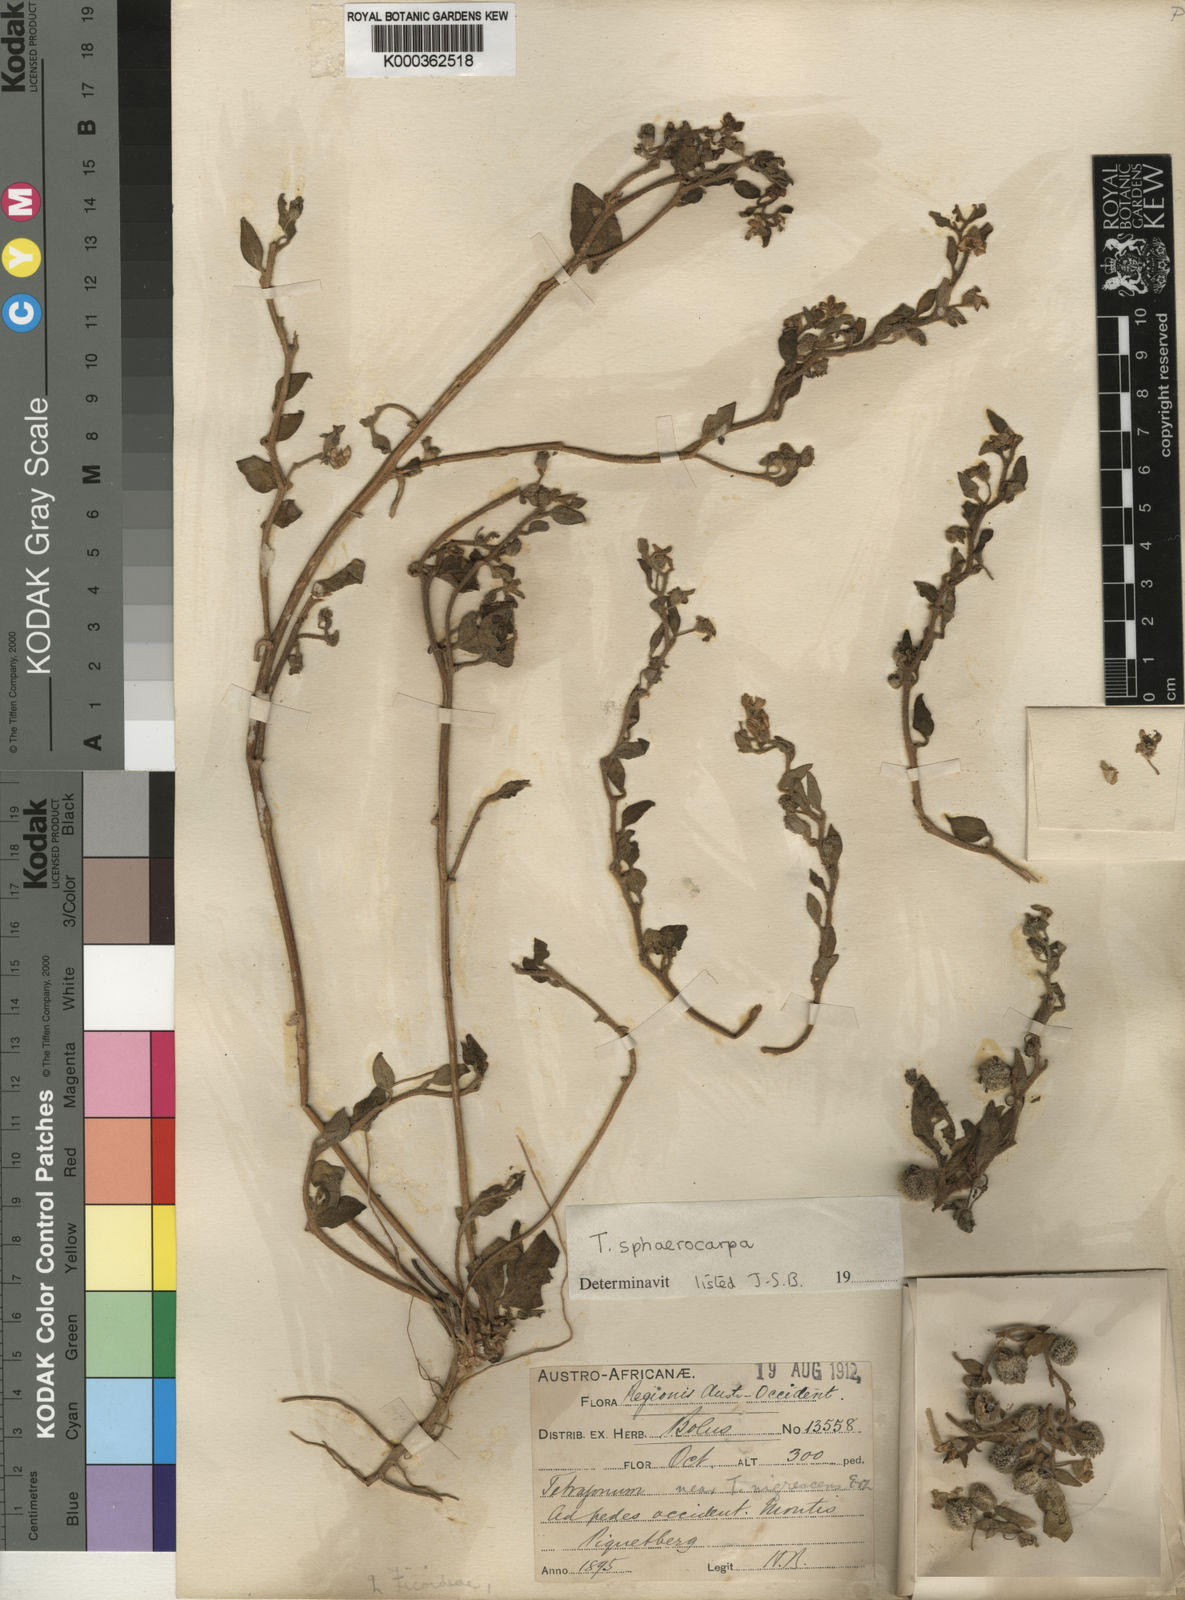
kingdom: Plantae
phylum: Tracheophyta
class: Magnoliopsida
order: Caryophyllales
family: Aizoaceae
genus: Tetragonia
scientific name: Tetragonia sphaerocarpa
